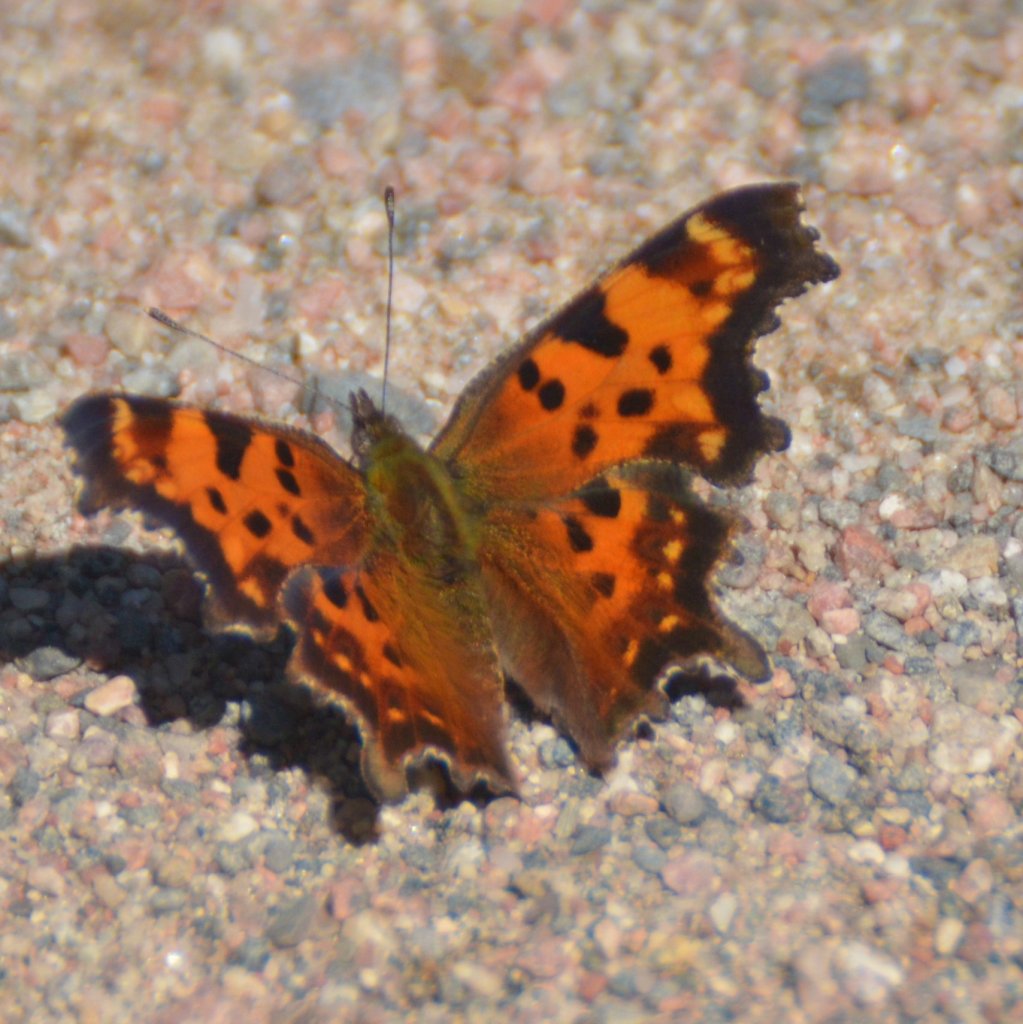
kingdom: Animalia
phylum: Arthropoda
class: Insecta
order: Lepidoptera
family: Nymphalidae
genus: Polygonia
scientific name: Polygonia faunus
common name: Green Comma
